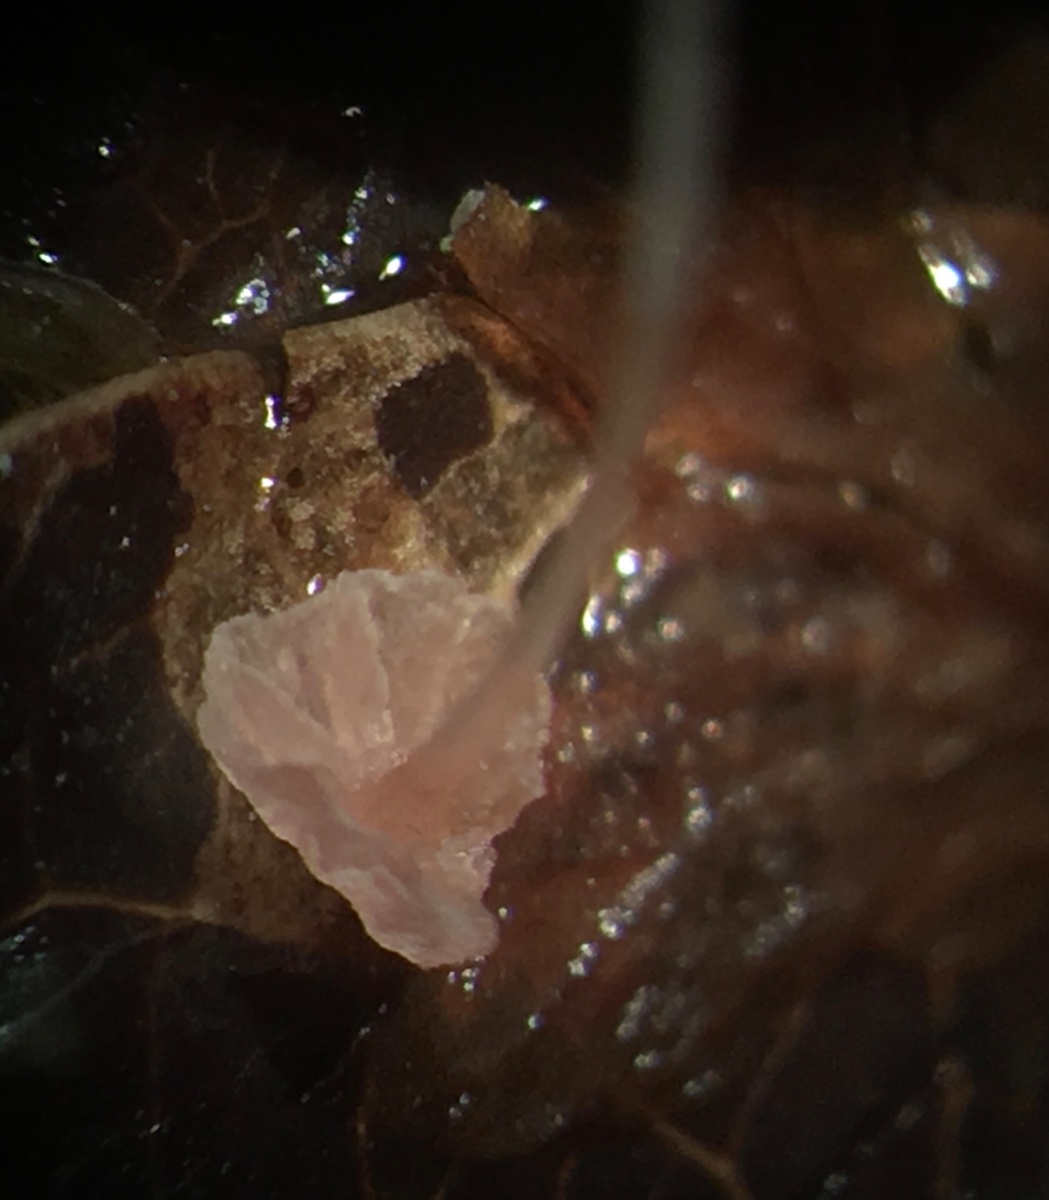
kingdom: Fungi
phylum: Basidiomycota
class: Agaricomycetes
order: Agaricales
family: Mycenaceae
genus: Mycena
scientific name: Mycena smithiana
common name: blegrød huesvamp
